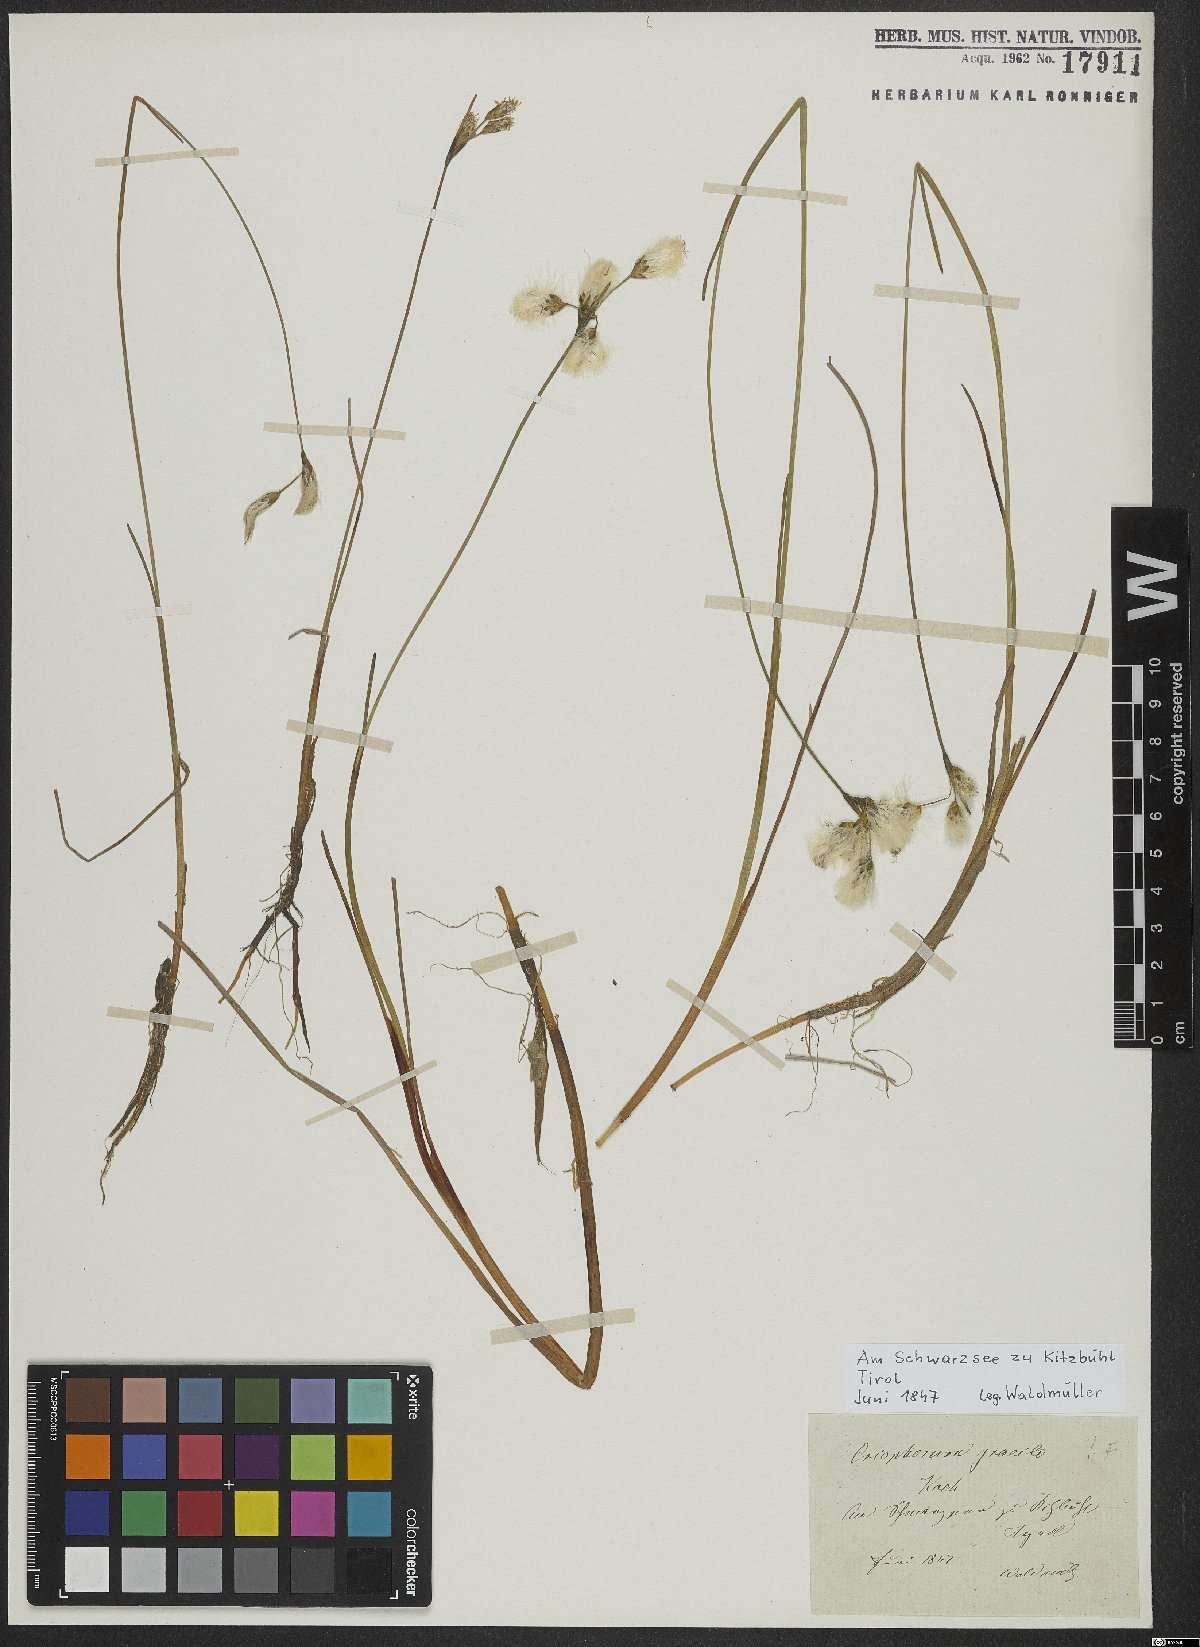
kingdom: Plantae
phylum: Tracheophyta
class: Liliopsida
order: Poales
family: Cyperaceae
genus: Eriophorum
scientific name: Eriophorum gracile
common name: Slender cottongrass
